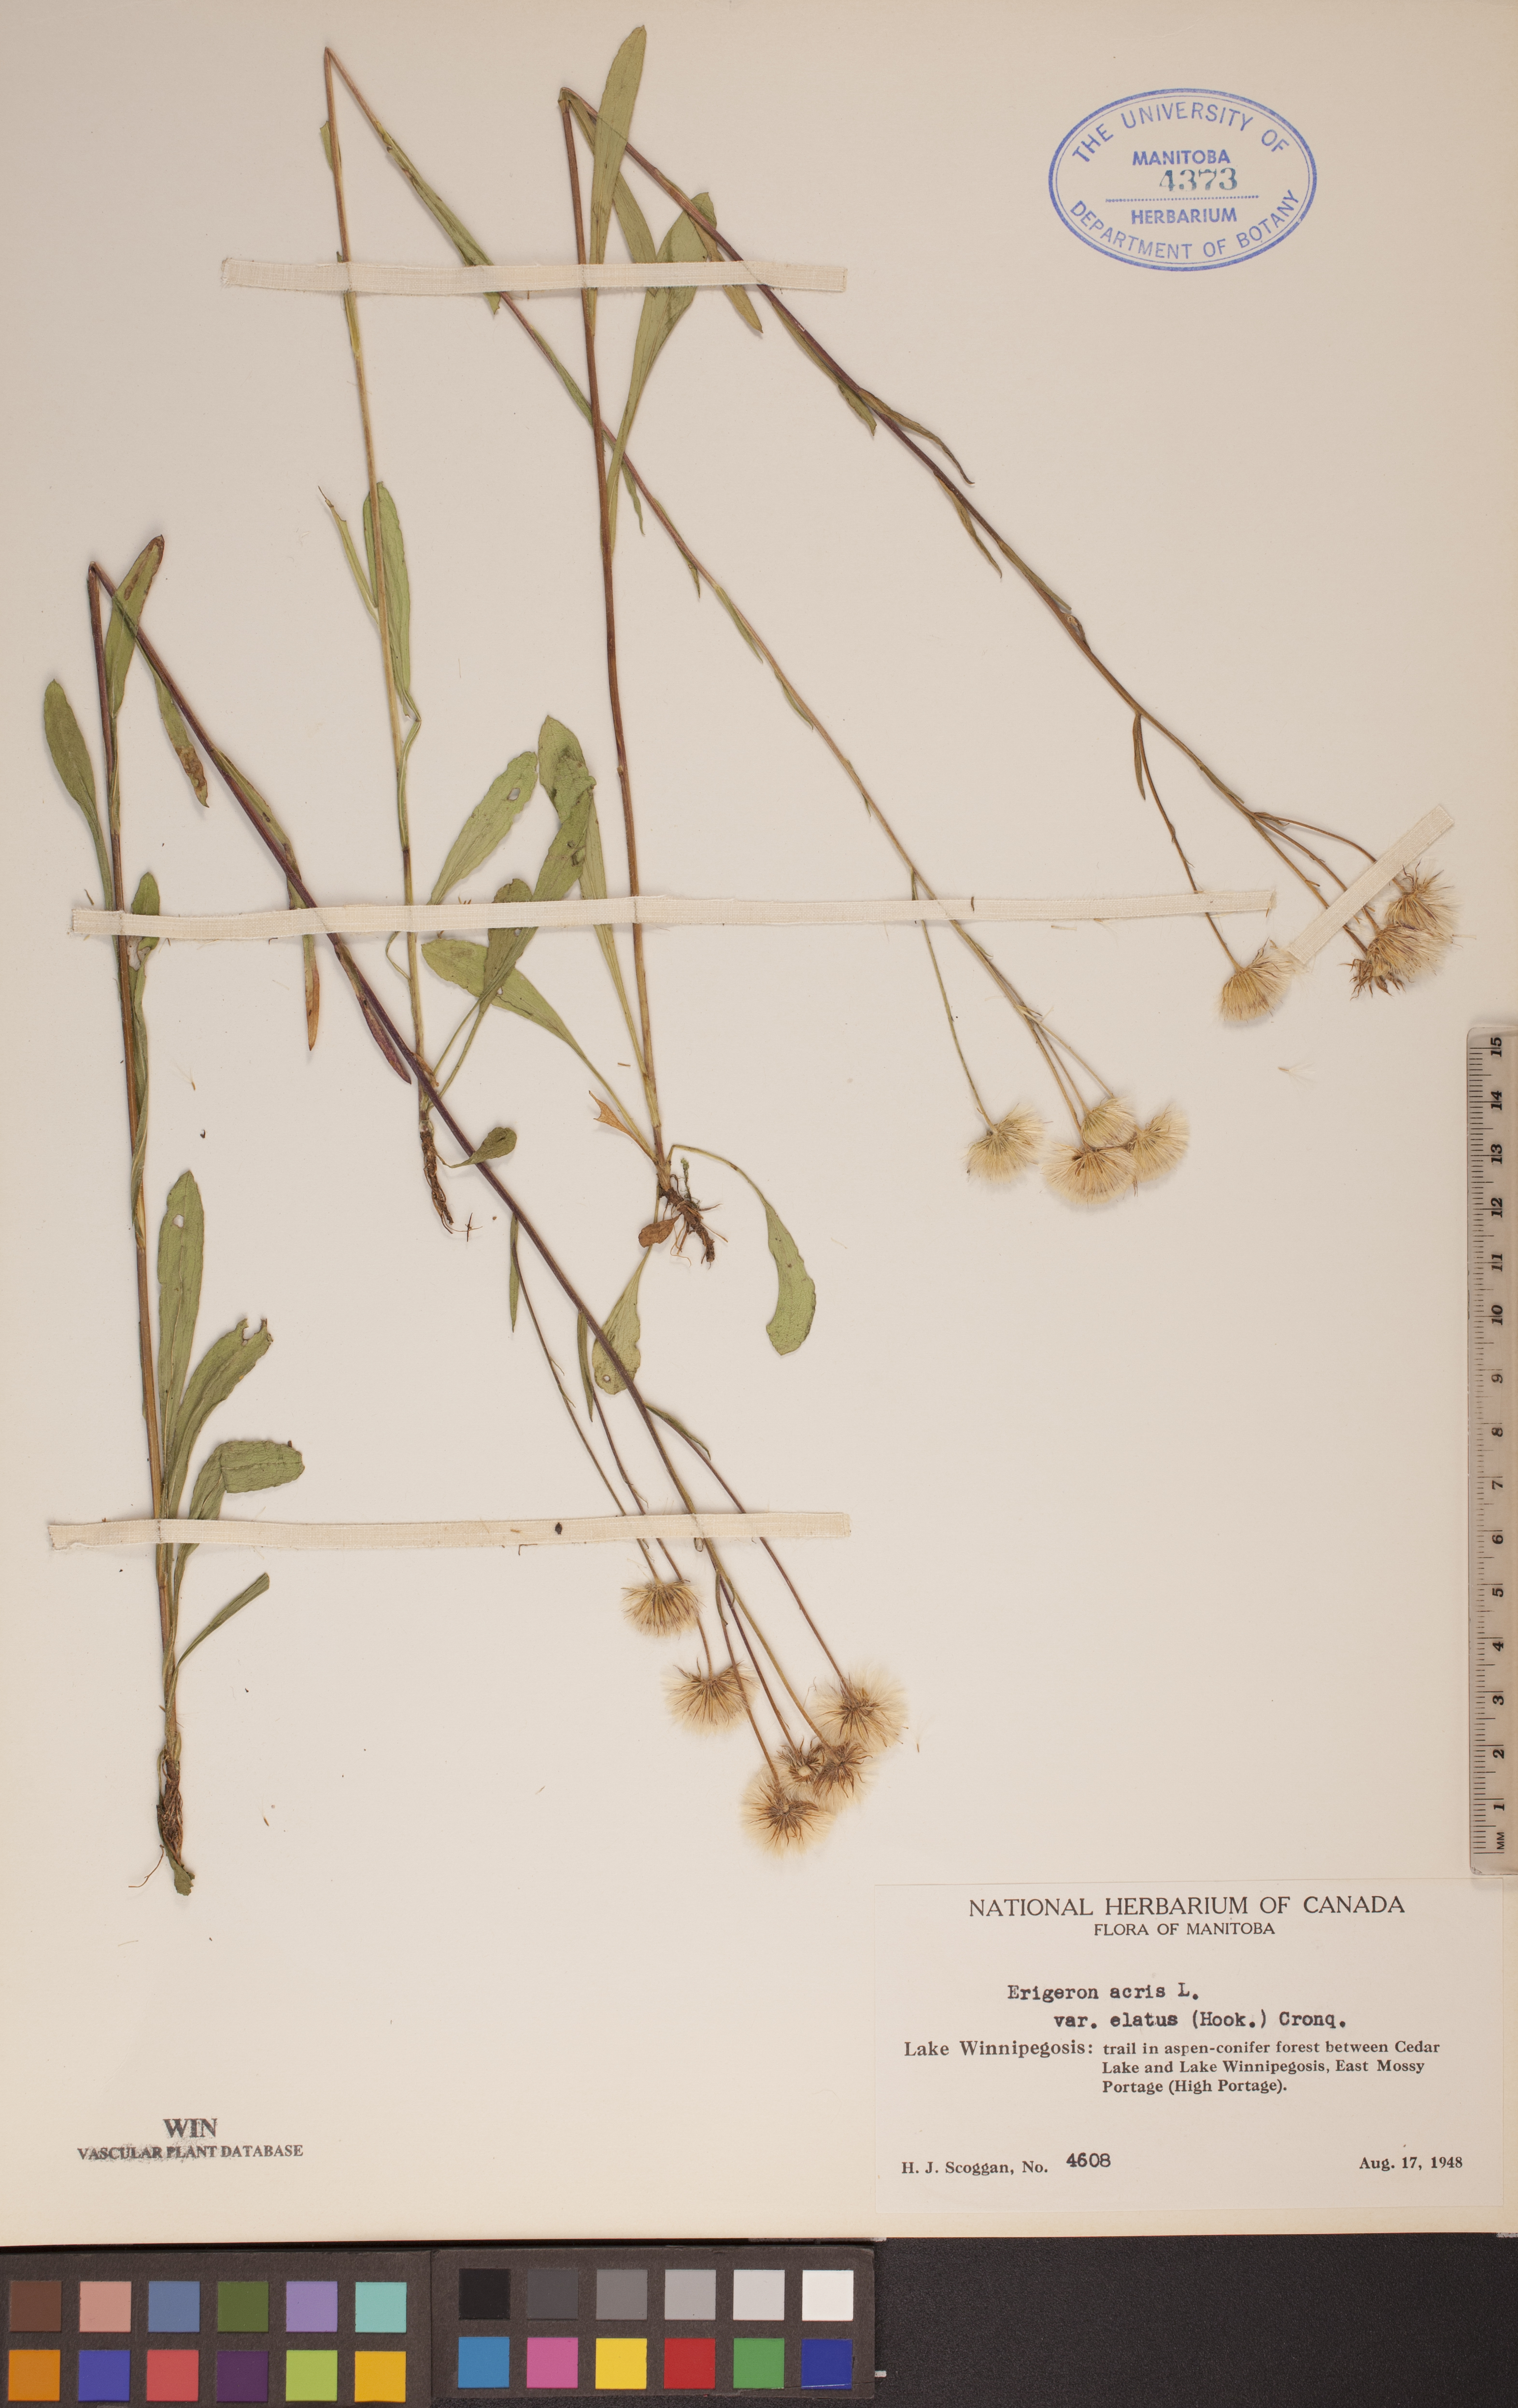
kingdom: Plantae
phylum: Tracheophyta
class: Magnoliopsida
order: Asterales
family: Asteraceae
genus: Erigeron
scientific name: Erigeron elatus
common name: Swamp fleabane
